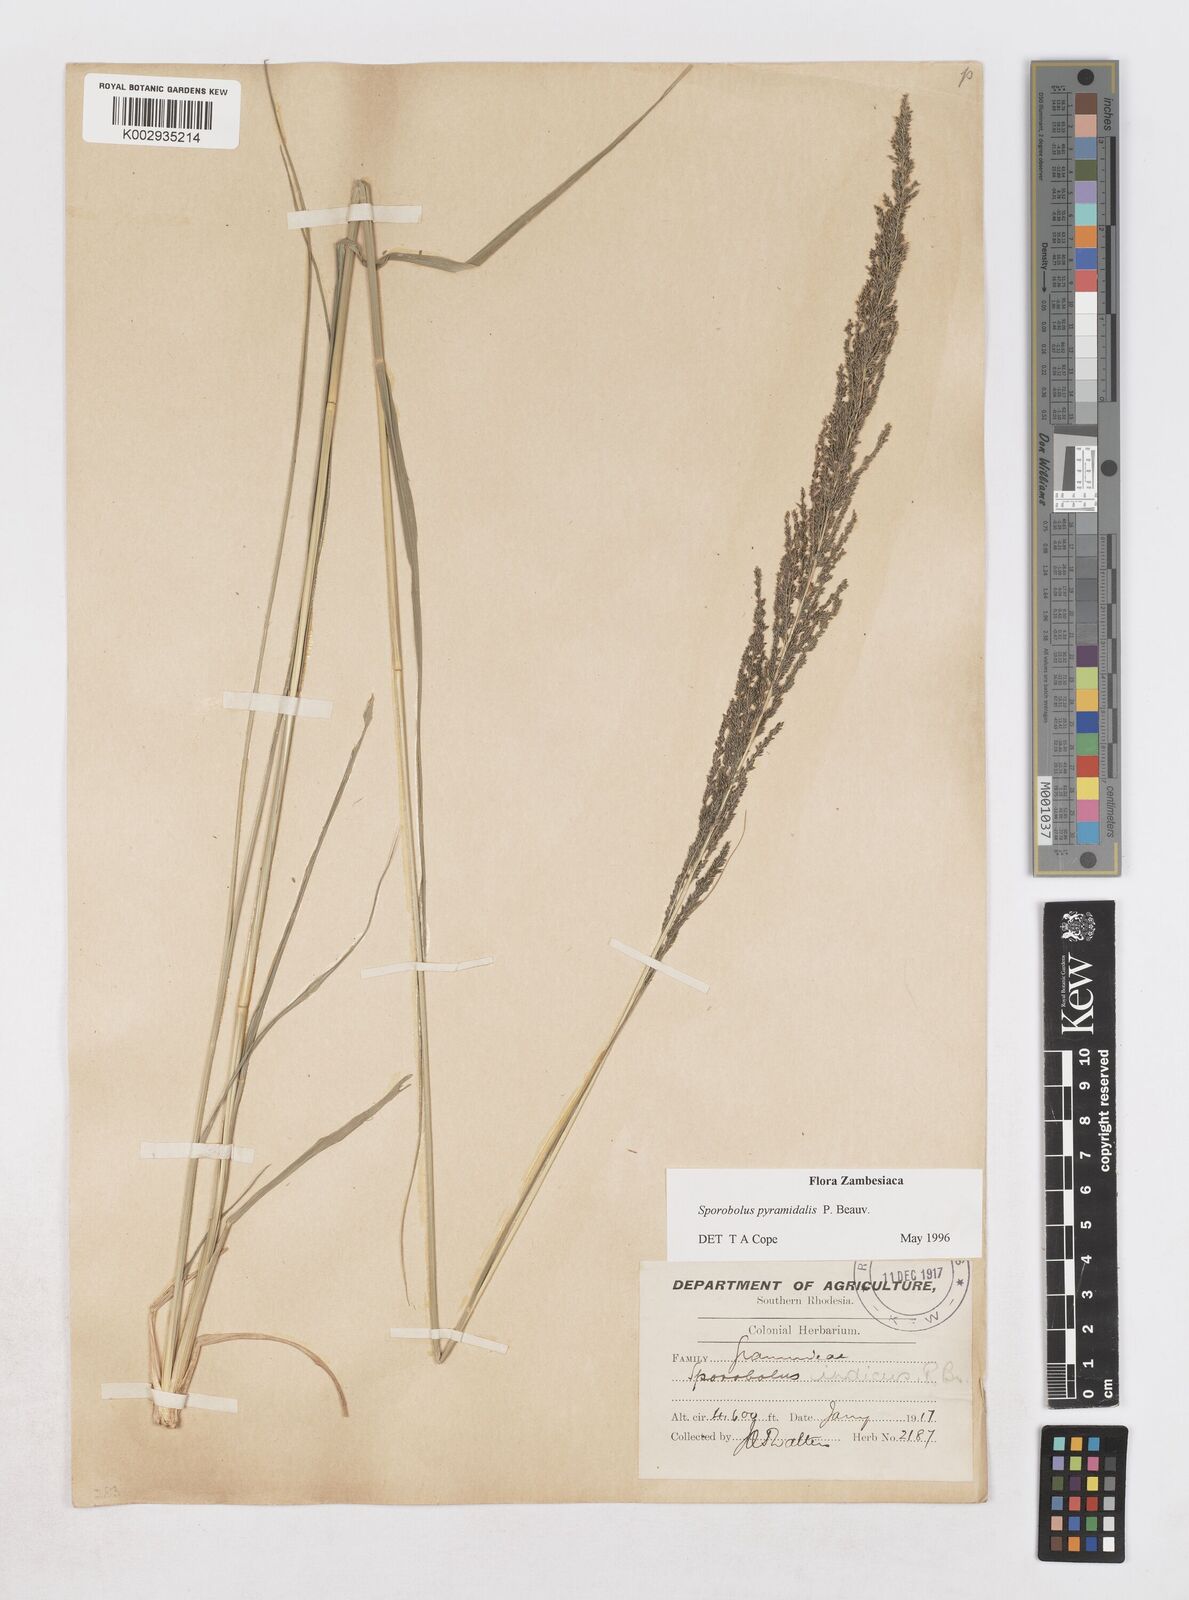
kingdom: Plantae
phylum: Tracheophyta
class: Liliopsida
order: Poales
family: Poaceae
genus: Sporobolus
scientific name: Sporobolus pyramidalis
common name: West indian dropseed
